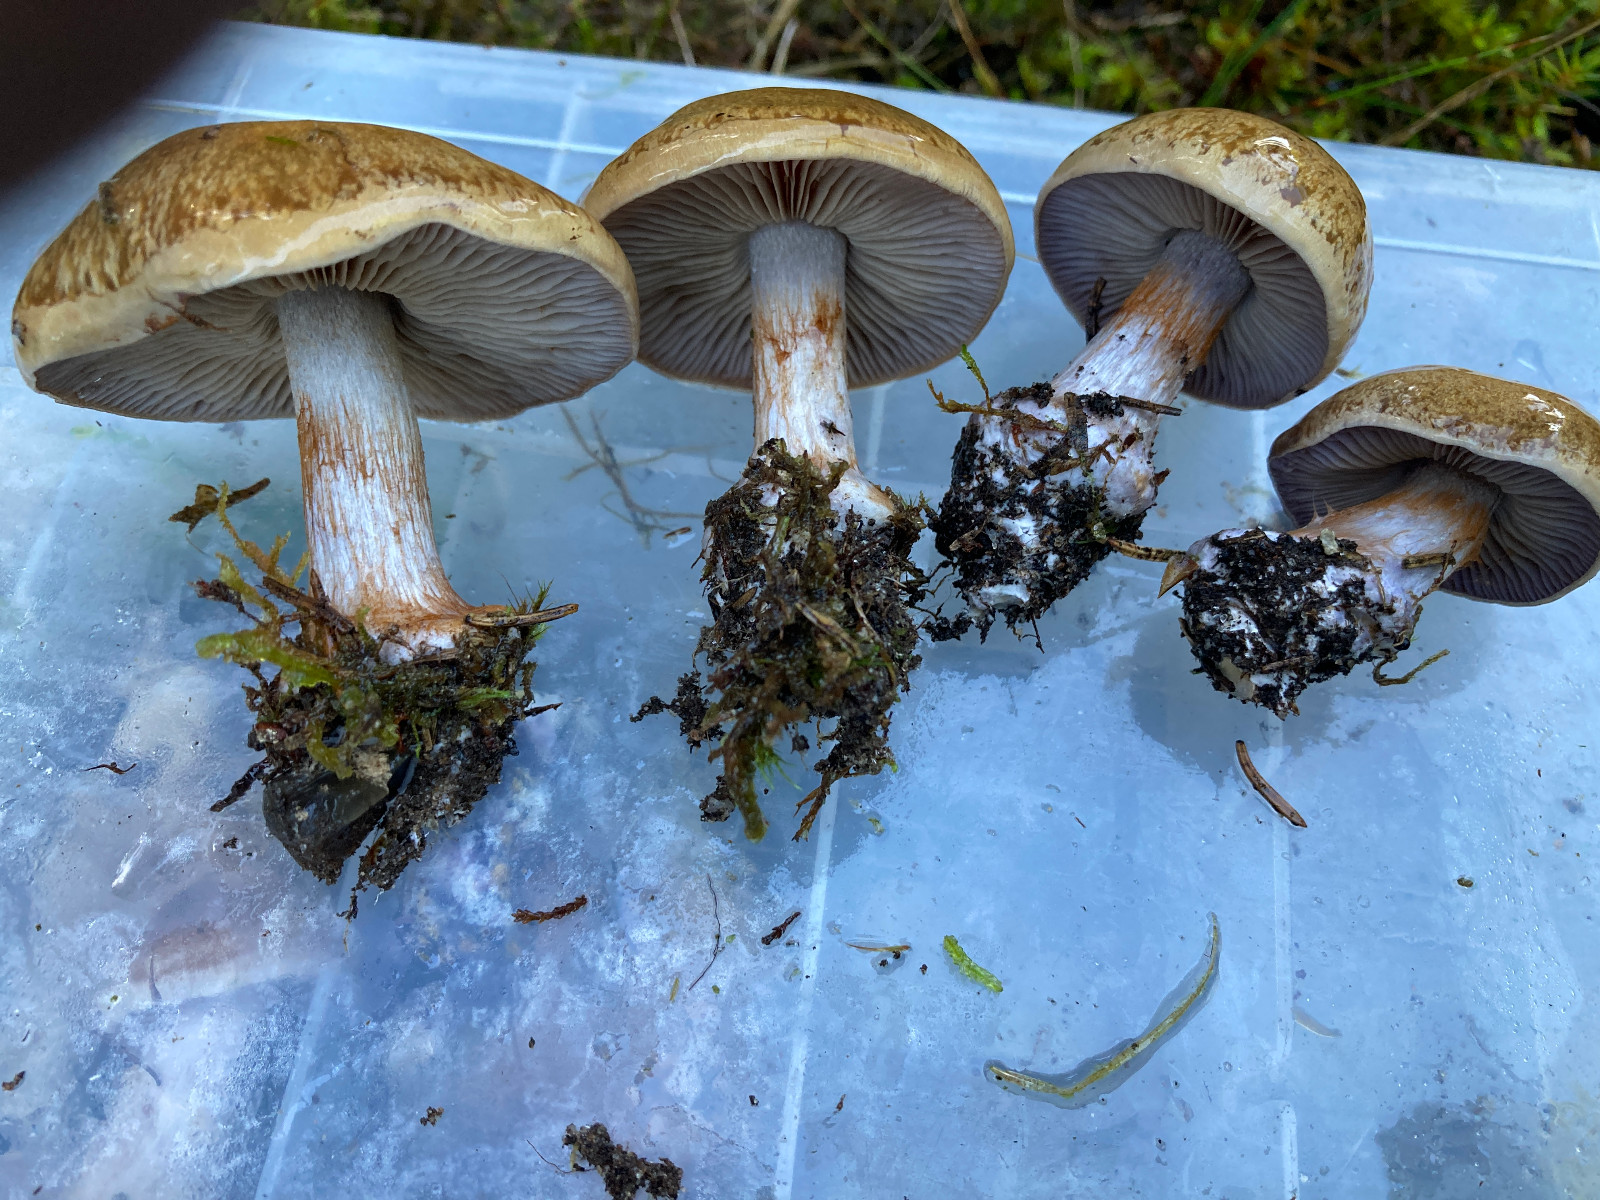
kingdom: Fungi
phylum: Basidiomycota
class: Agaricomycetes
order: Agaricales
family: Cortinariaceae
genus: Cortinarius
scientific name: Cortinarius
